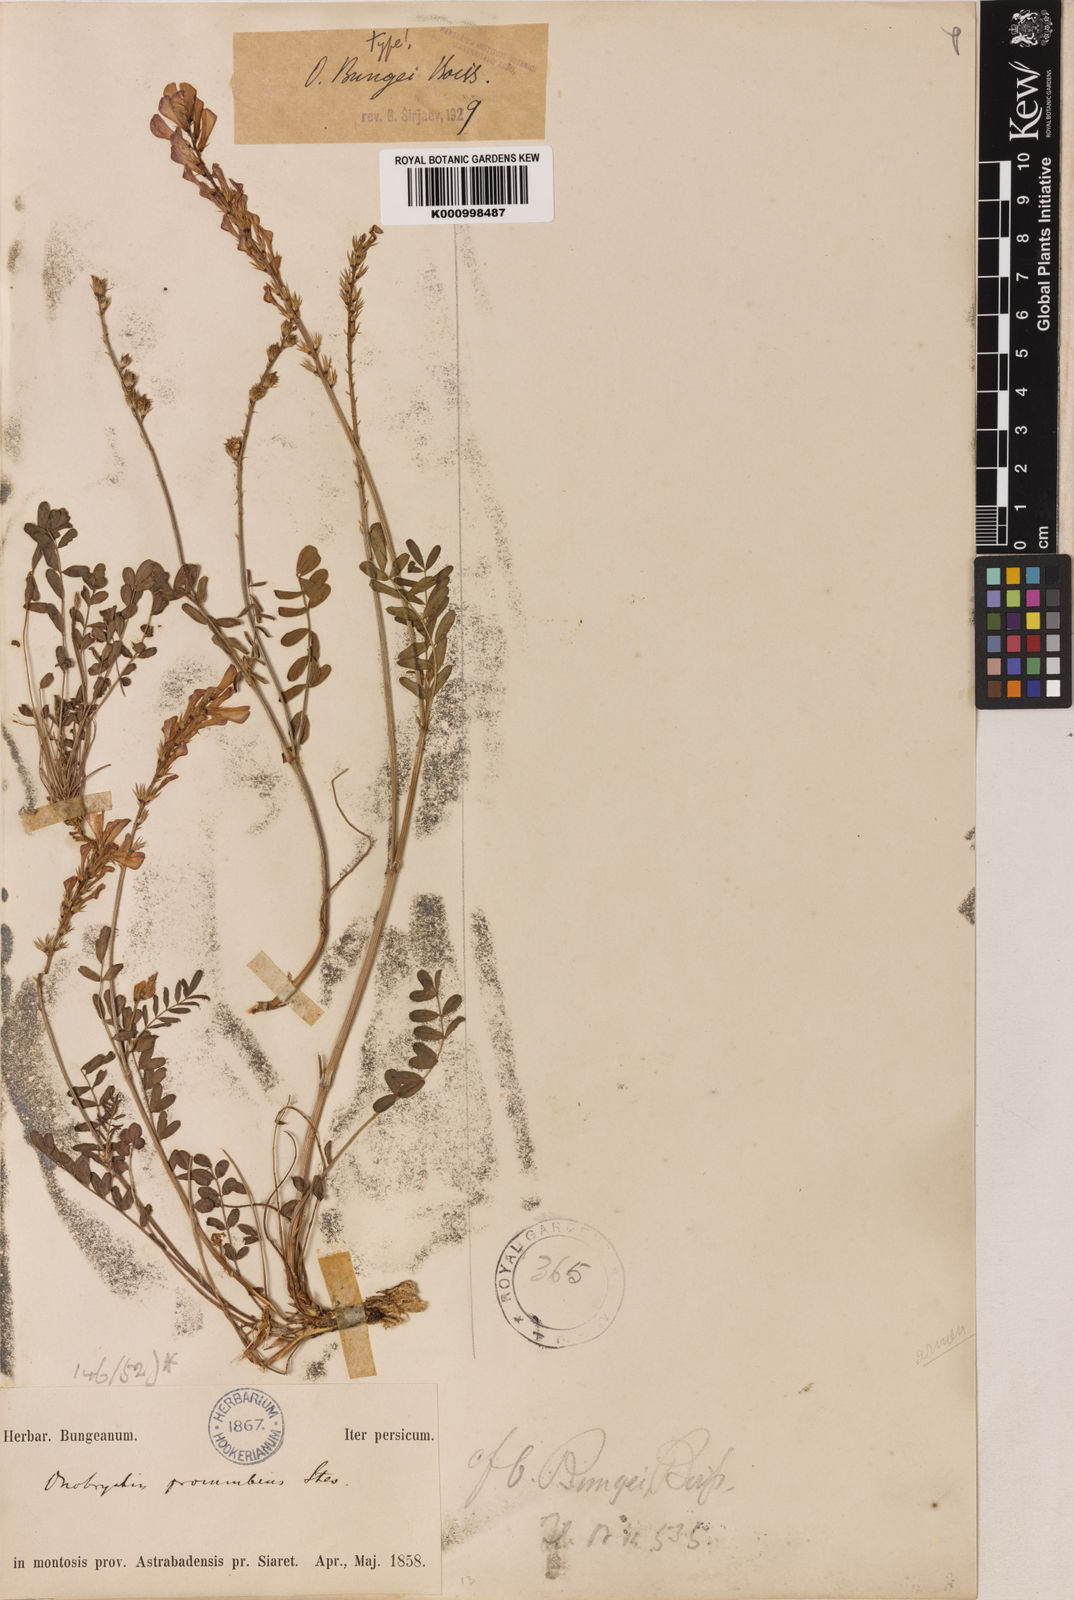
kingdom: Plantae
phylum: Tracheophyta
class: Magnoliopsida
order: Fabales
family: Fabaceae
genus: Onobrychis
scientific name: Onobrychis bungei
